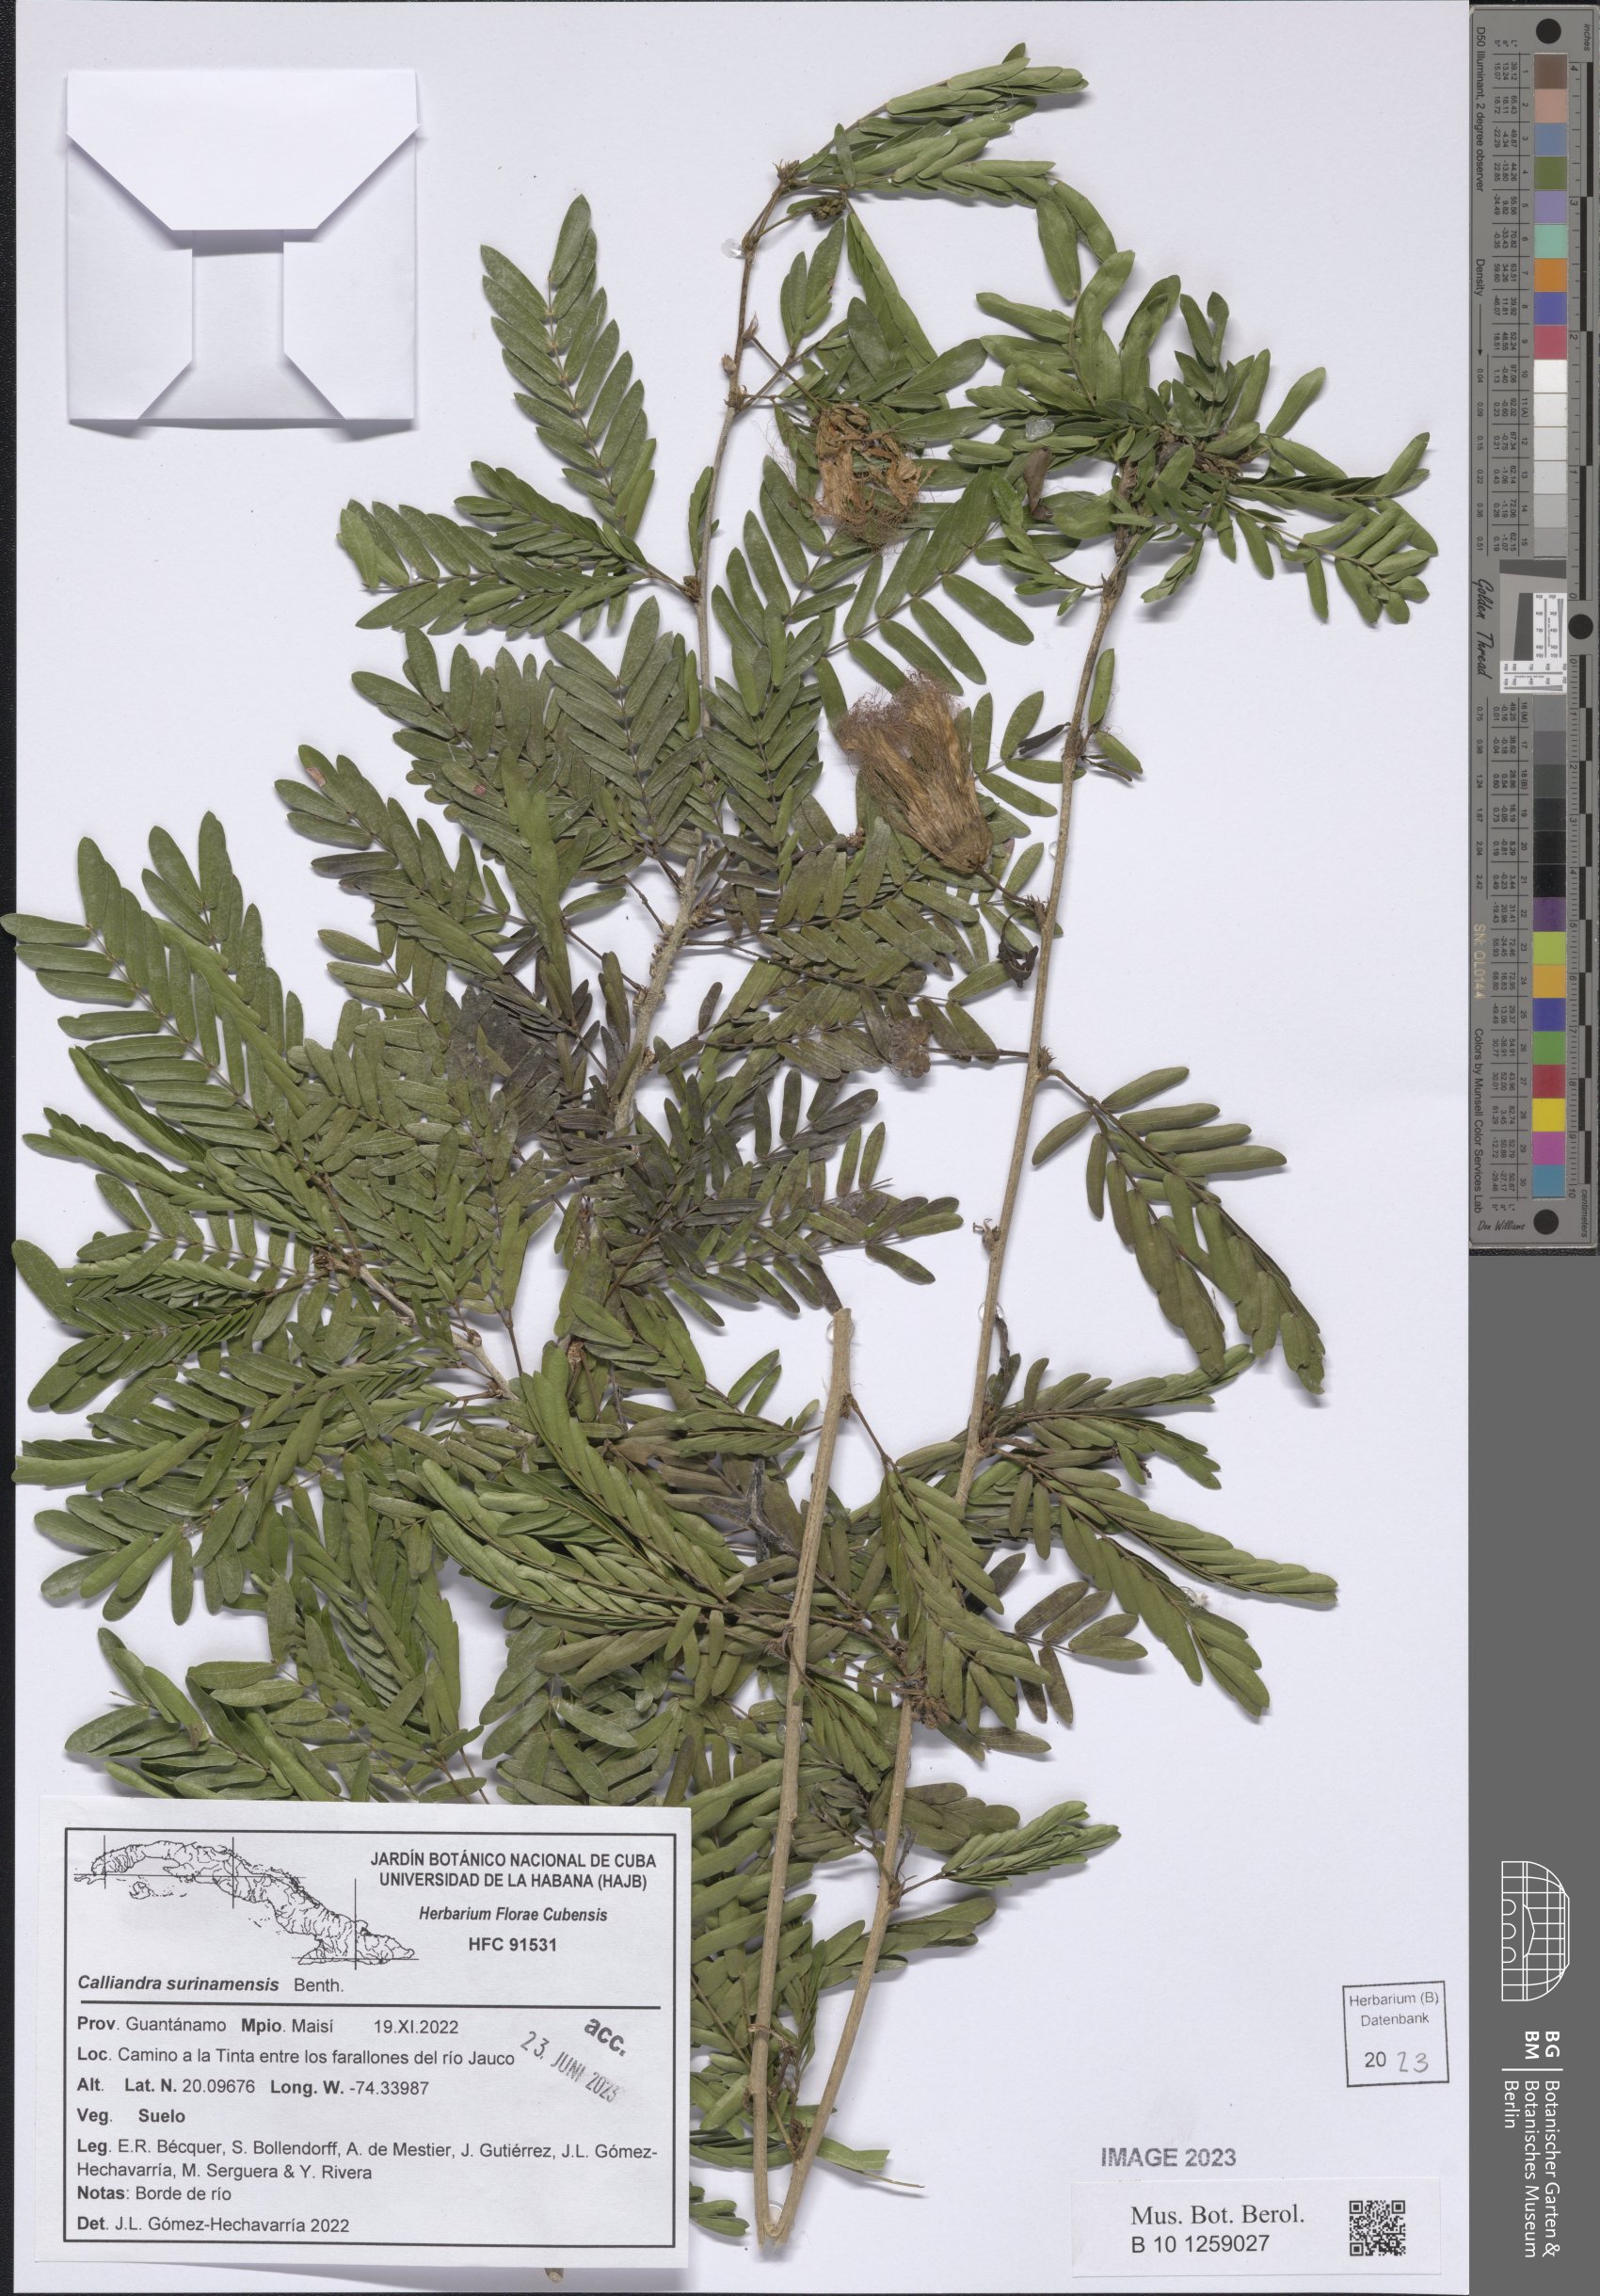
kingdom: Plantae
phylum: Tracheophyta
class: Magnoliopsida
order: Fabales
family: Fabaceae
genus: Calliandra
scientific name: Calliandra surinamensis
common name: Pink powder puff
